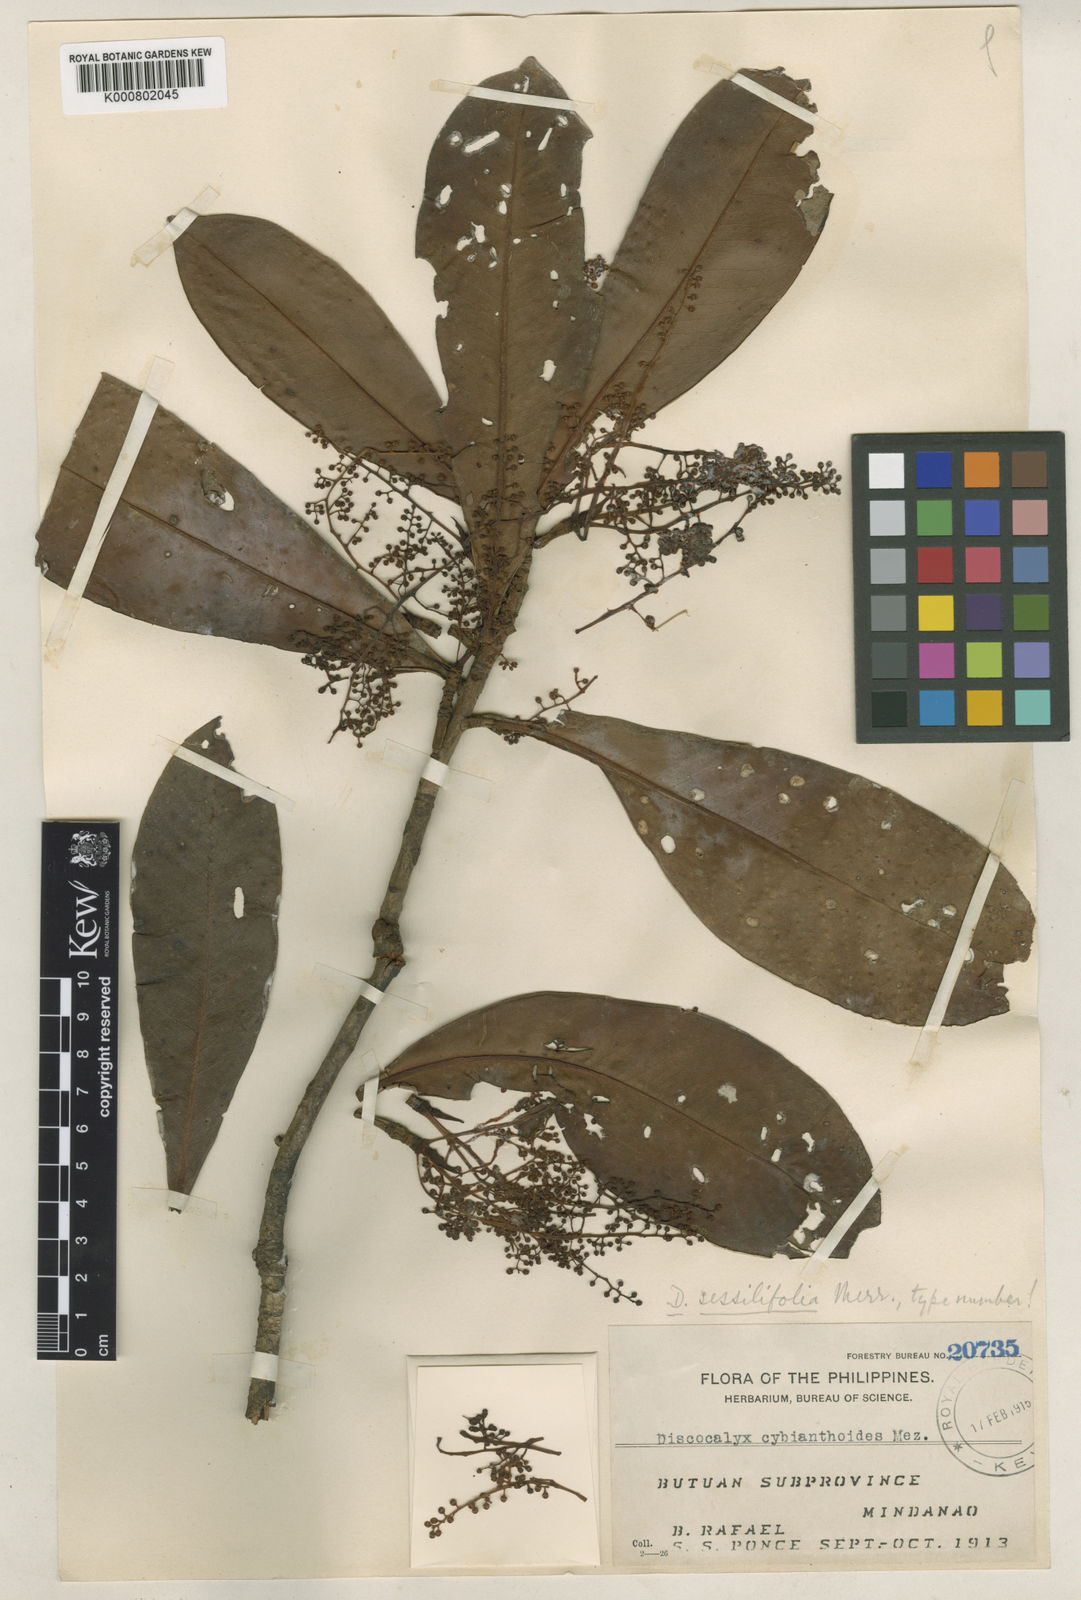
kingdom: Plantae
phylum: Tracheophyta
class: Magnoliopsida
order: Ericales
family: Primulaceae
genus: Discocalyx
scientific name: Discocalyx sessilifolia
